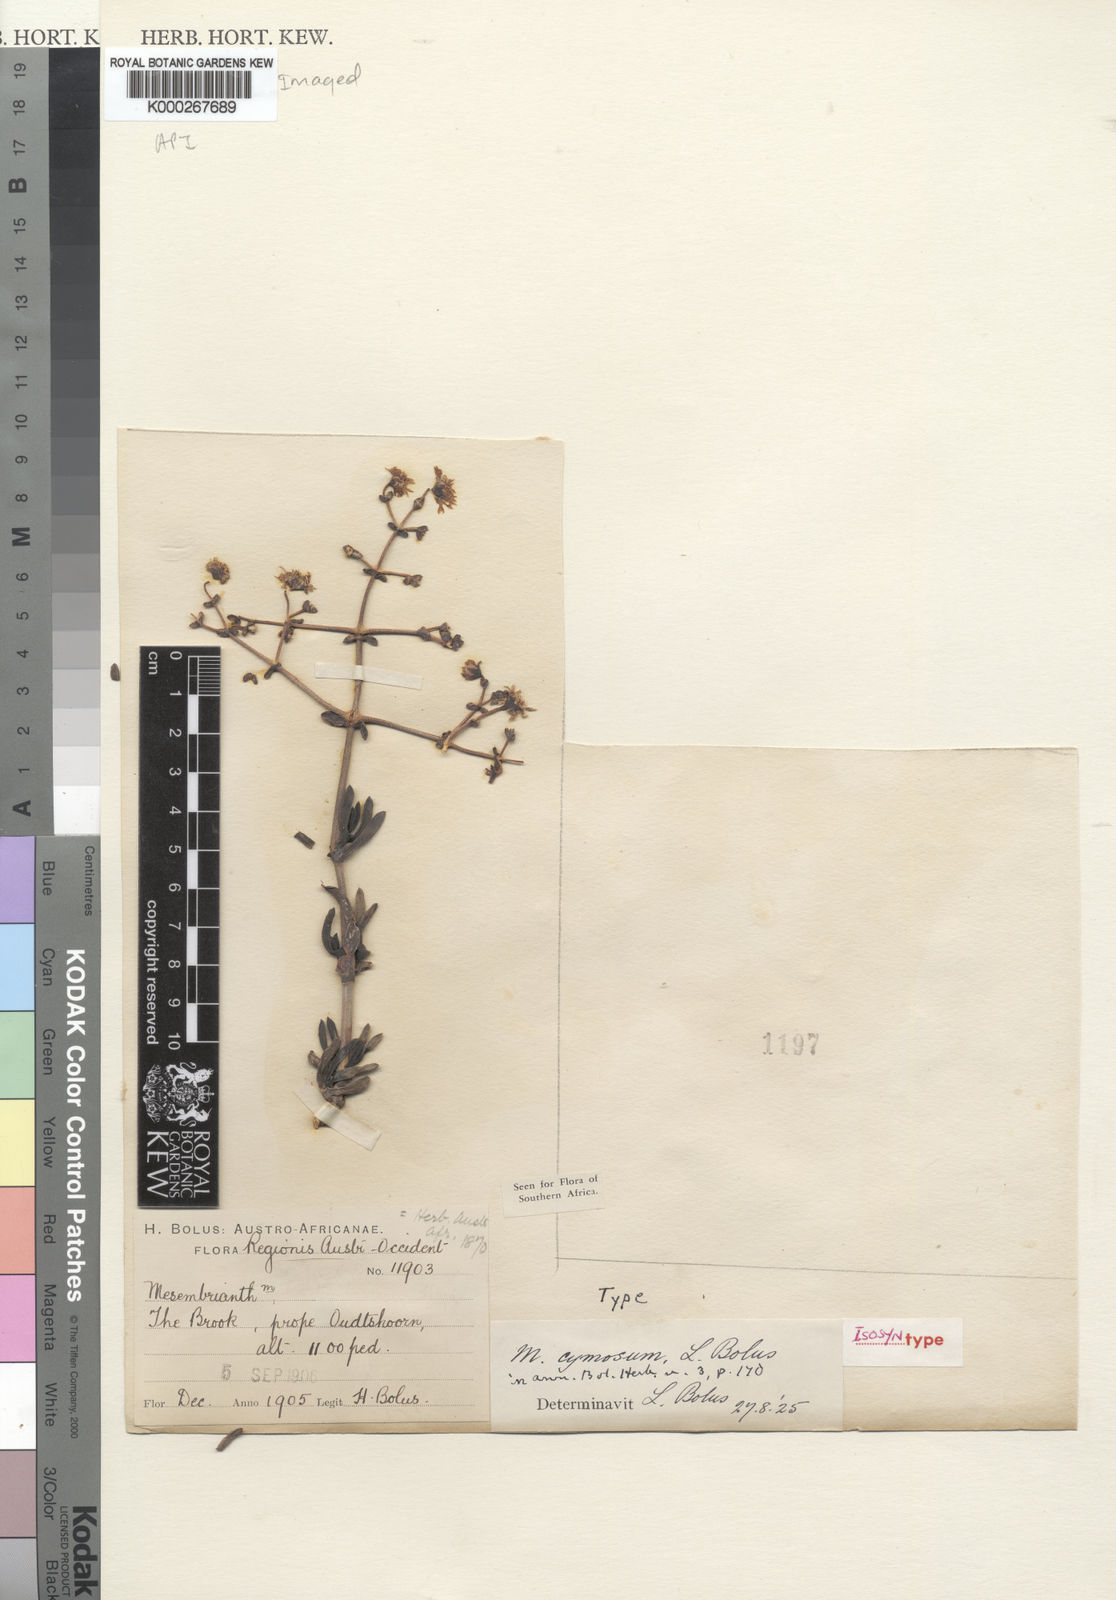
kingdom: Plantae
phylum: Tracheophyta
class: Magnoliopsida
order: Caryophyllales
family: Aizoaceae
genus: Ruschia
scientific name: Ruschia cymosa
